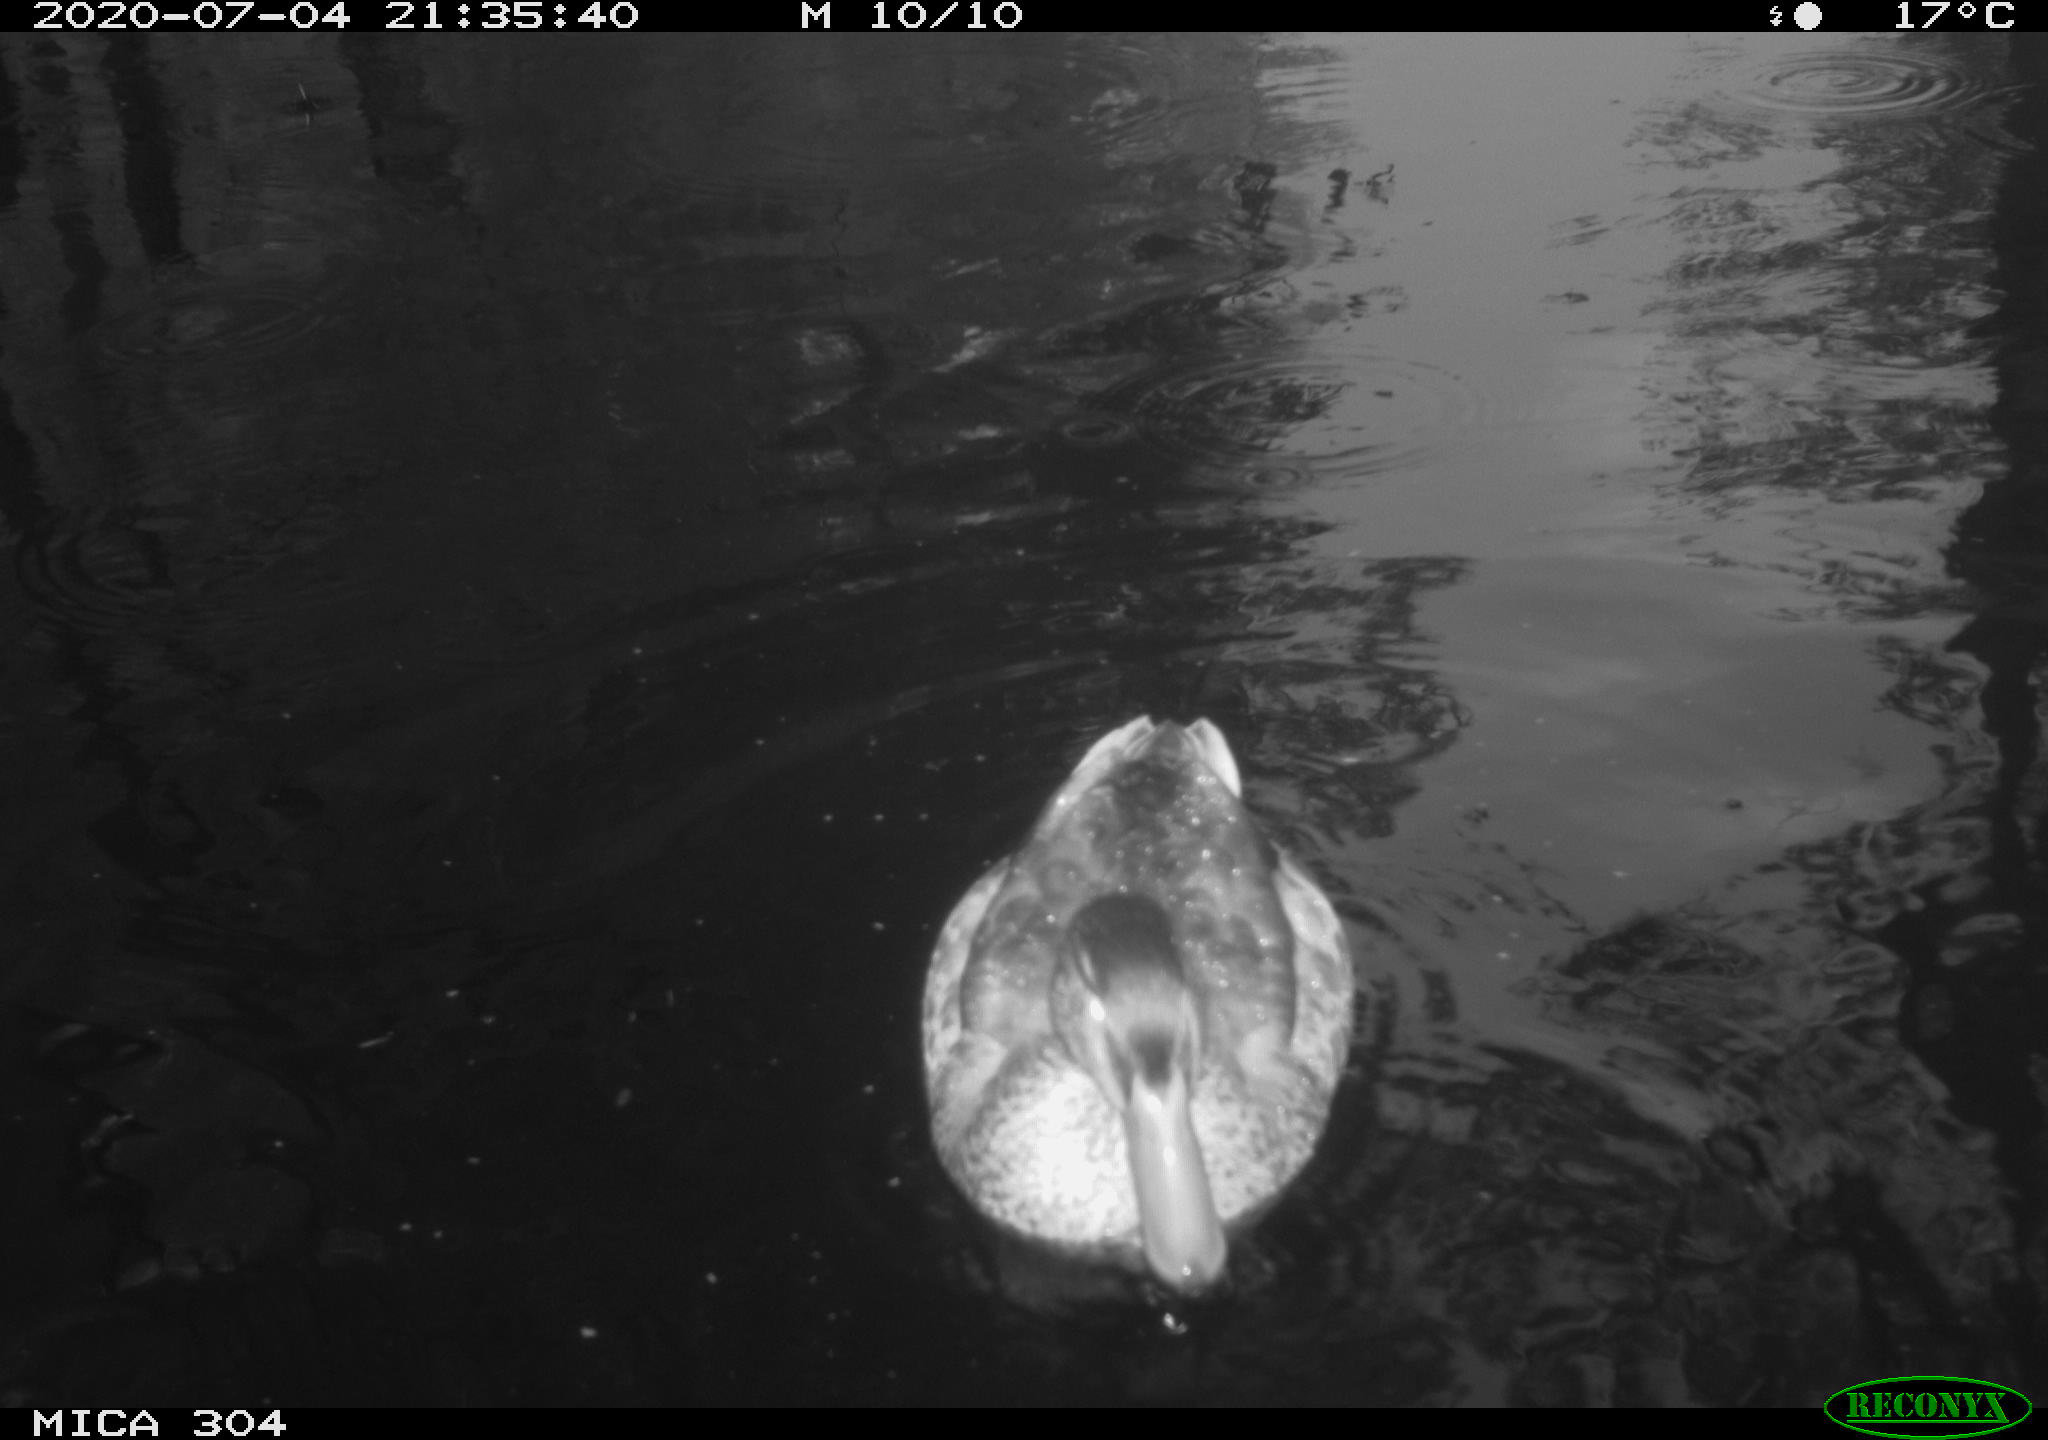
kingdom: Animalia
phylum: Chordata
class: Aves
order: Anseriformes
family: Anatidae
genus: Anas
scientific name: Anas platyrhynchos
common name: Mallard
